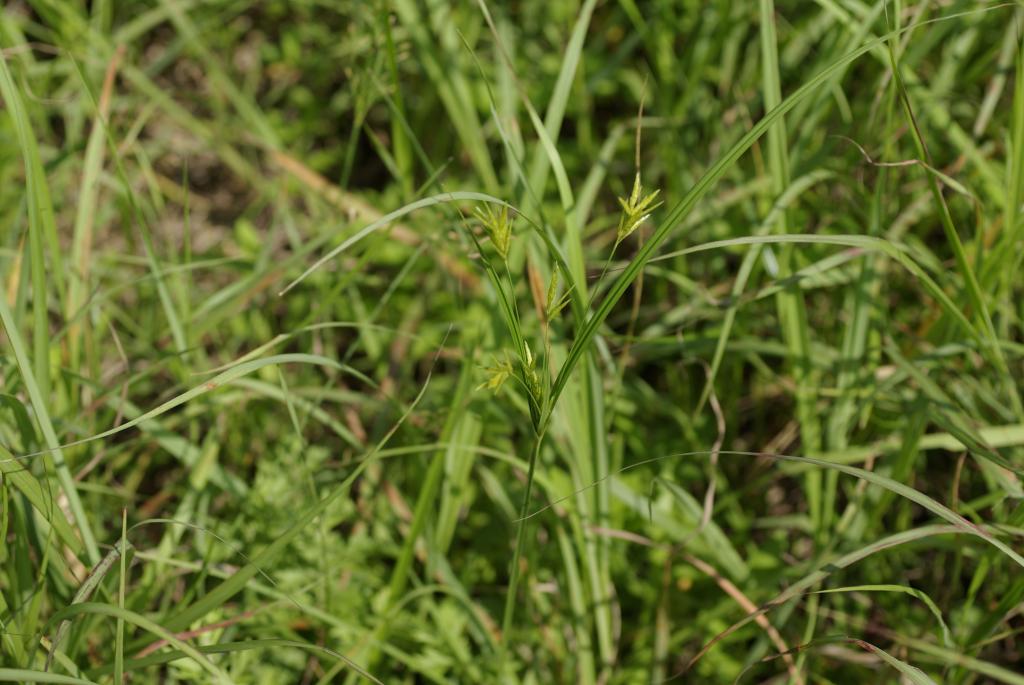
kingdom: Plantae
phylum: Tracheophyta
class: Liliopsida
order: Poales
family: Cyperaceae
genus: Cyperus
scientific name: Cyperus tenuiculmis
